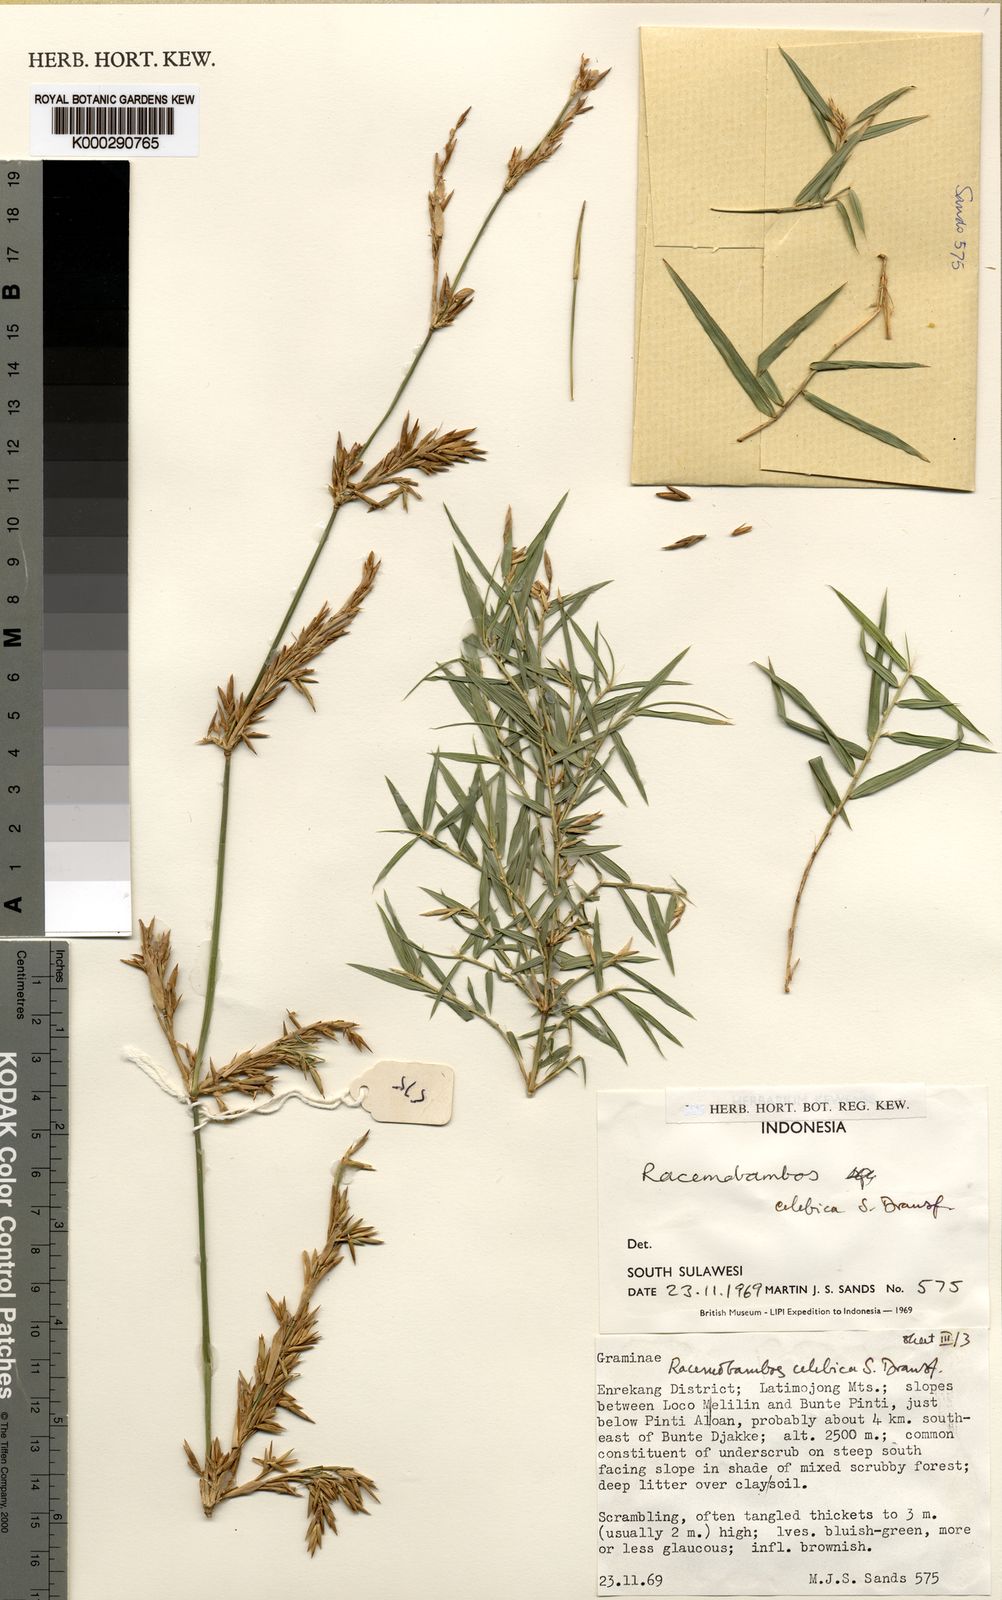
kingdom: Plantae
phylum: Tracheophyta
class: Liliopsida
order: Poales
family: Poaceae
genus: Racemobambos
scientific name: Racemobambos celebica
